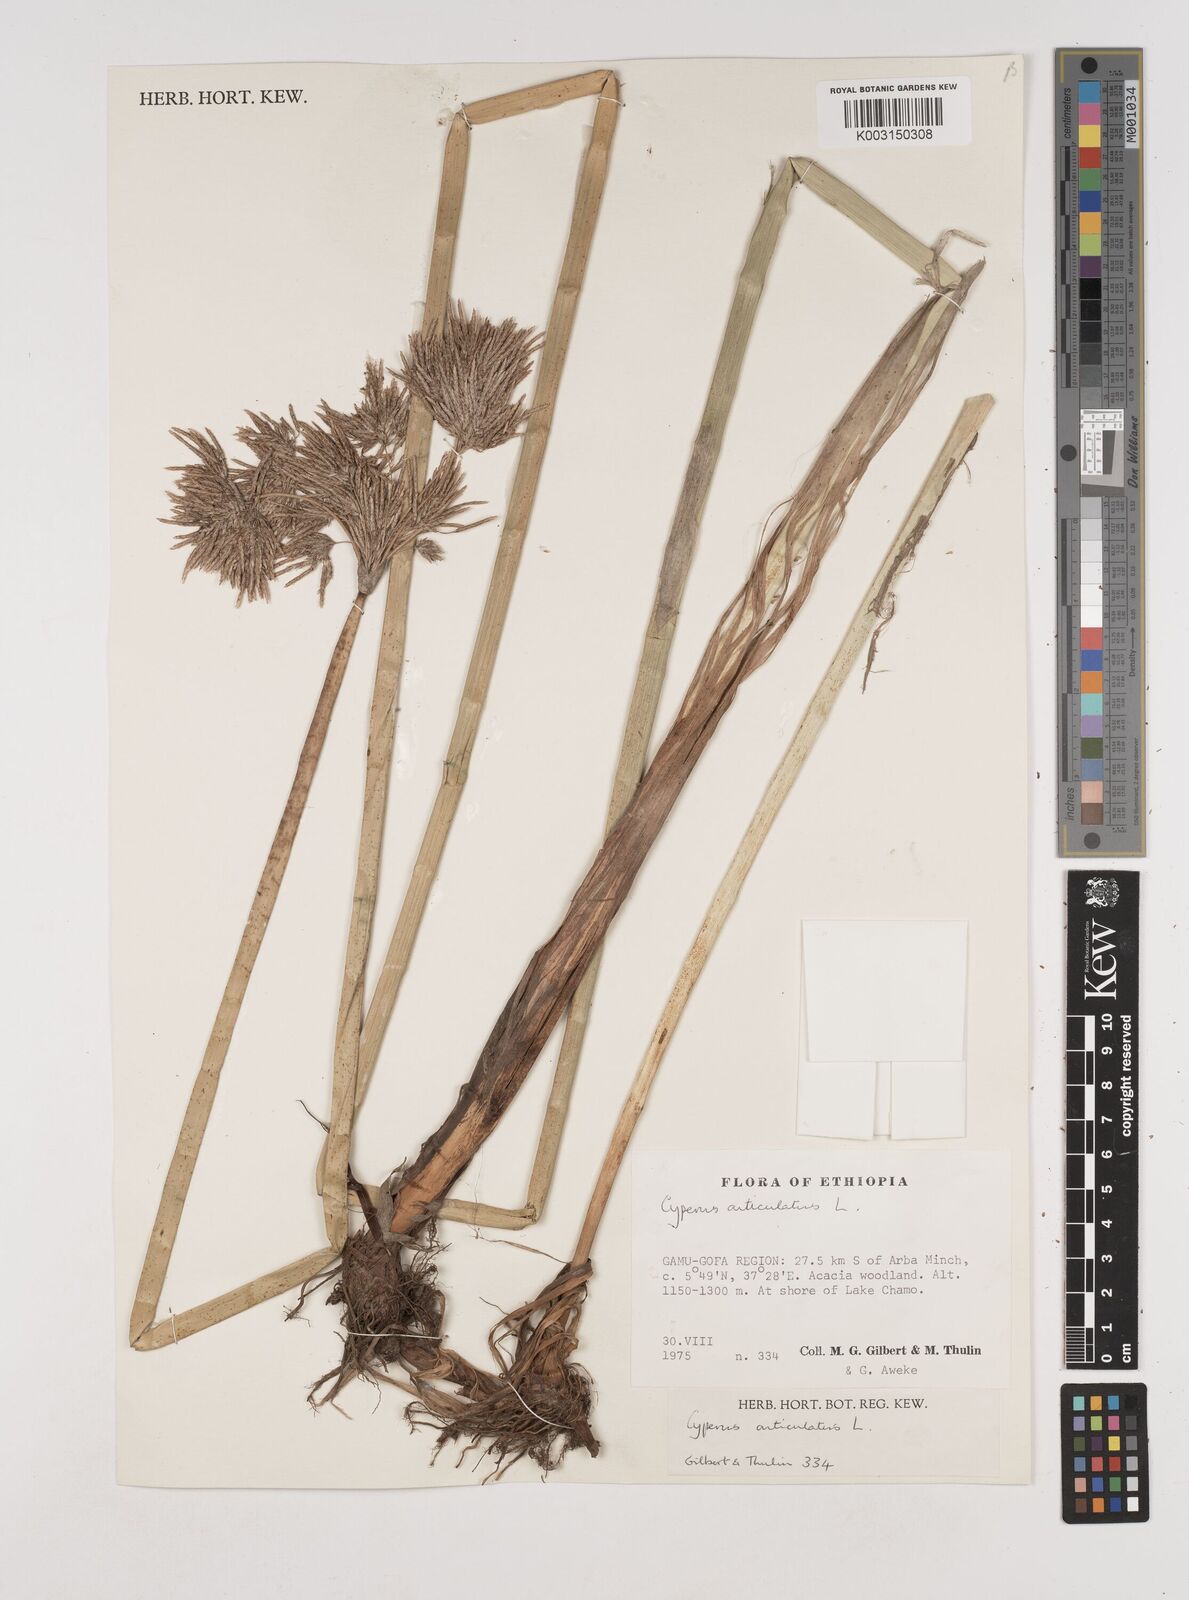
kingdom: Plantae
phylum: Tracheophyta
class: Liliopsida
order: Poales
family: Cyperaceae
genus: Cyperus
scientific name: Cyperus articulatus
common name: Jointed flatsedge
